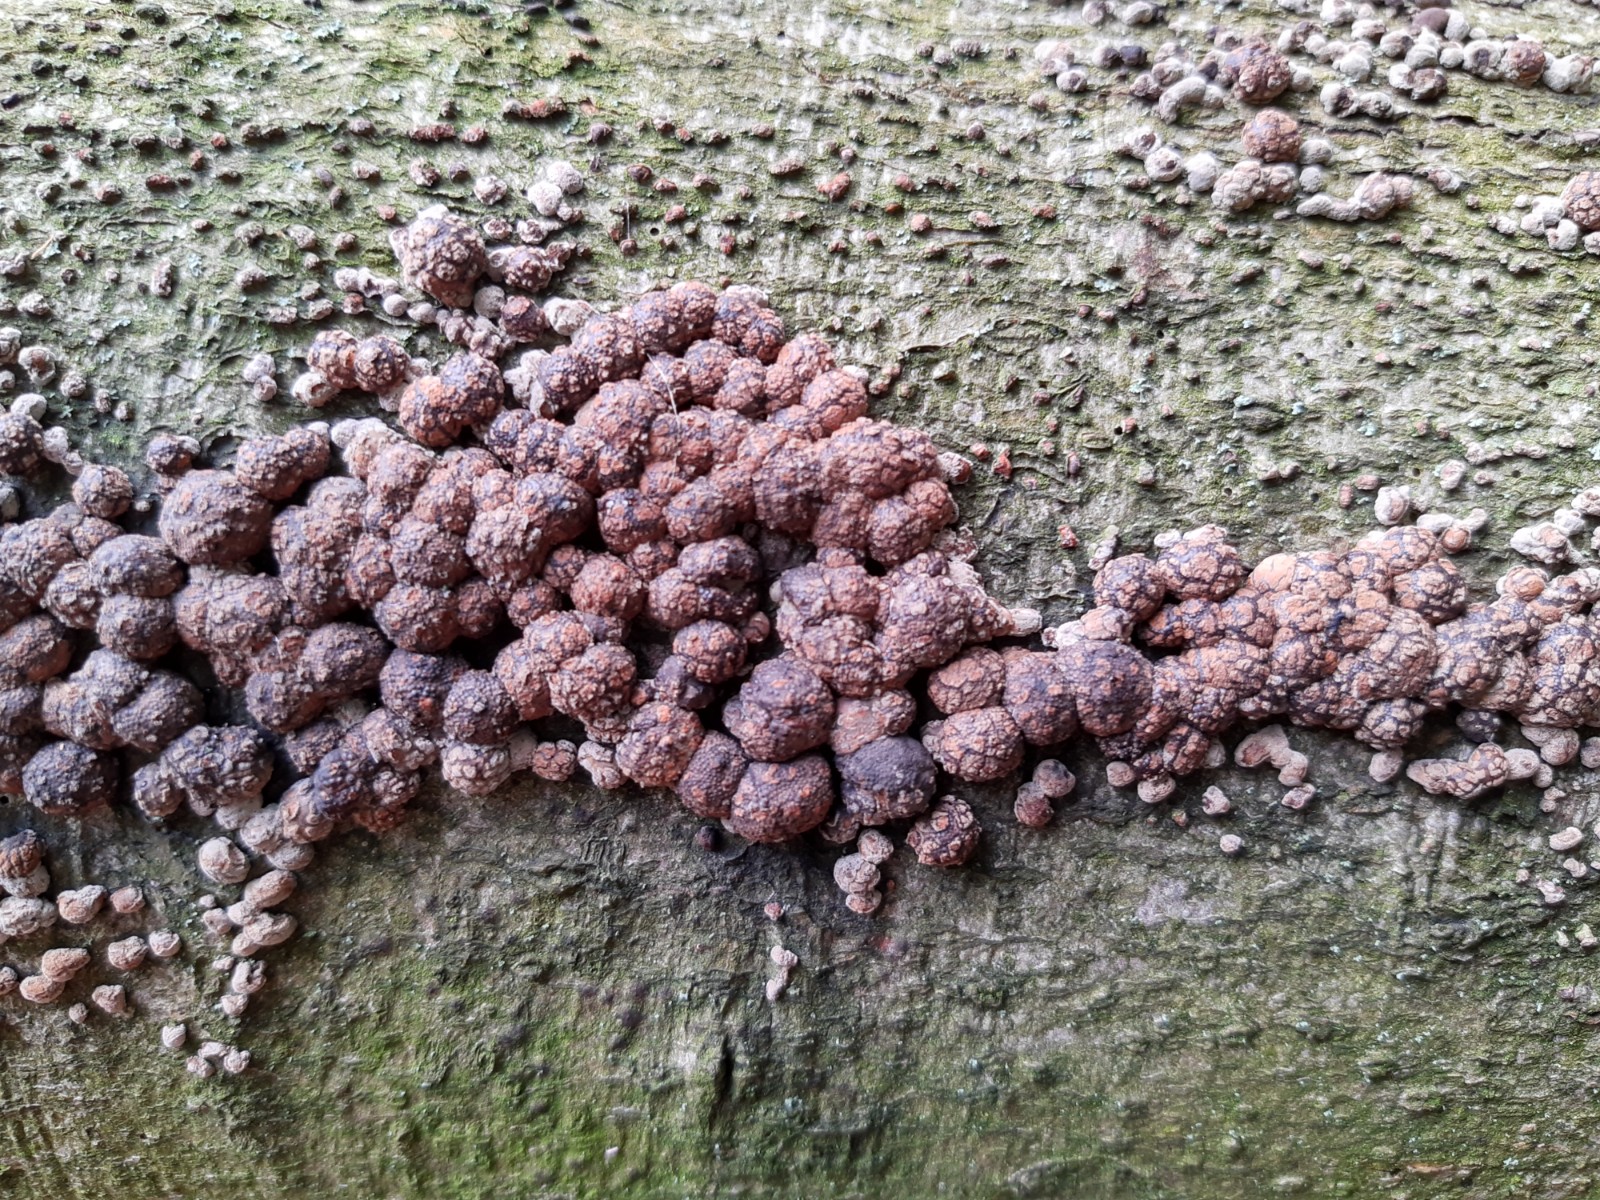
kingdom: Fungi
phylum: Ascomycota
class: Sordariomycetes
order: Xylariales
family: Hypoxylaceae
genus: Hypoxylon
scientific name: Hypoxylon fragiforme
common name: kuljordbær
